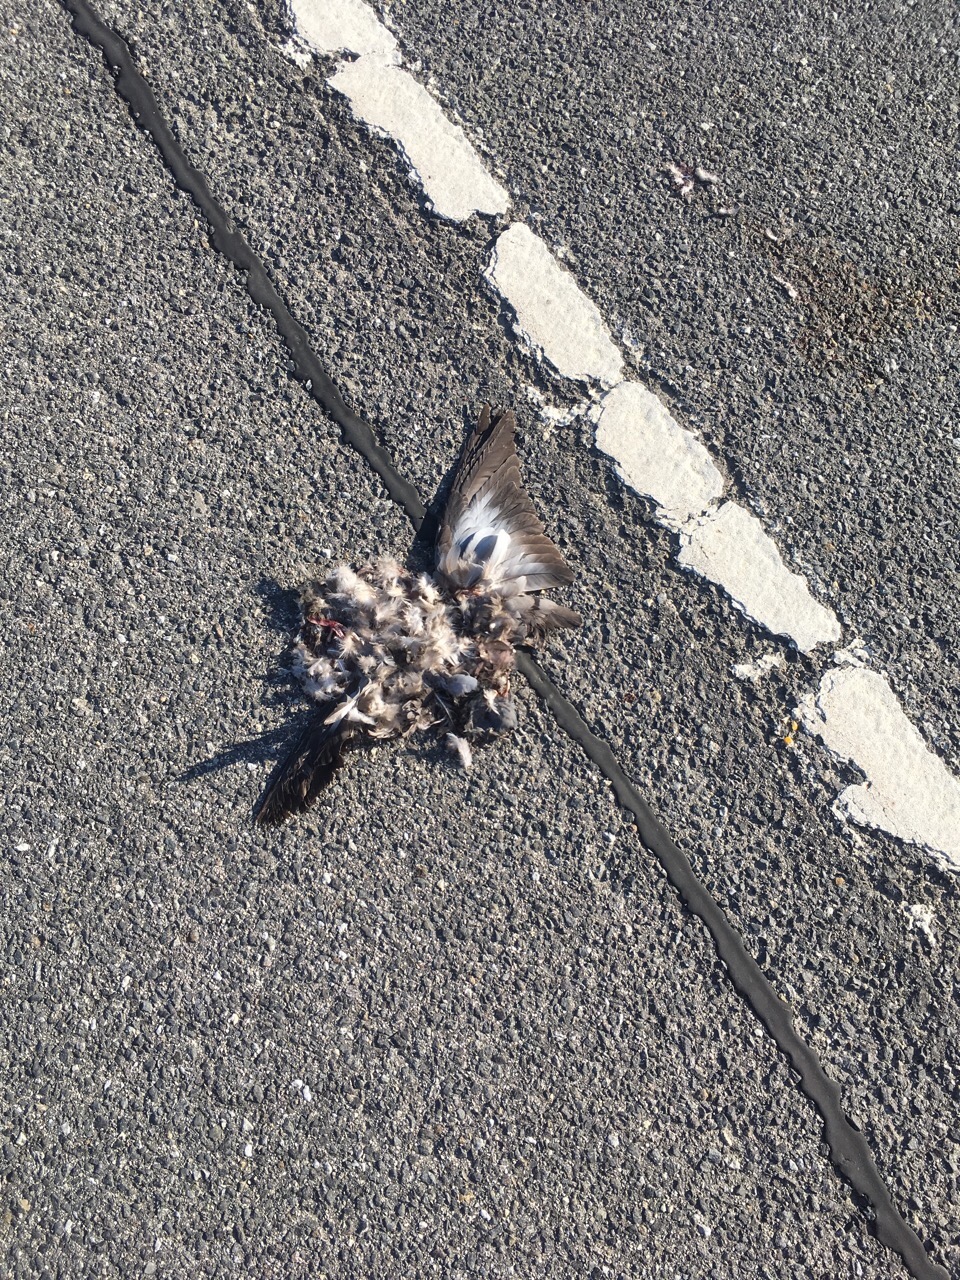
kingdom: Animalia
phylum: Chordata
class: Aves
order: Columbiformes
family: Columbidae
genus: Streptopelia
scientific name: Streptopelia decaocto
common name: Eurasian collared dove
